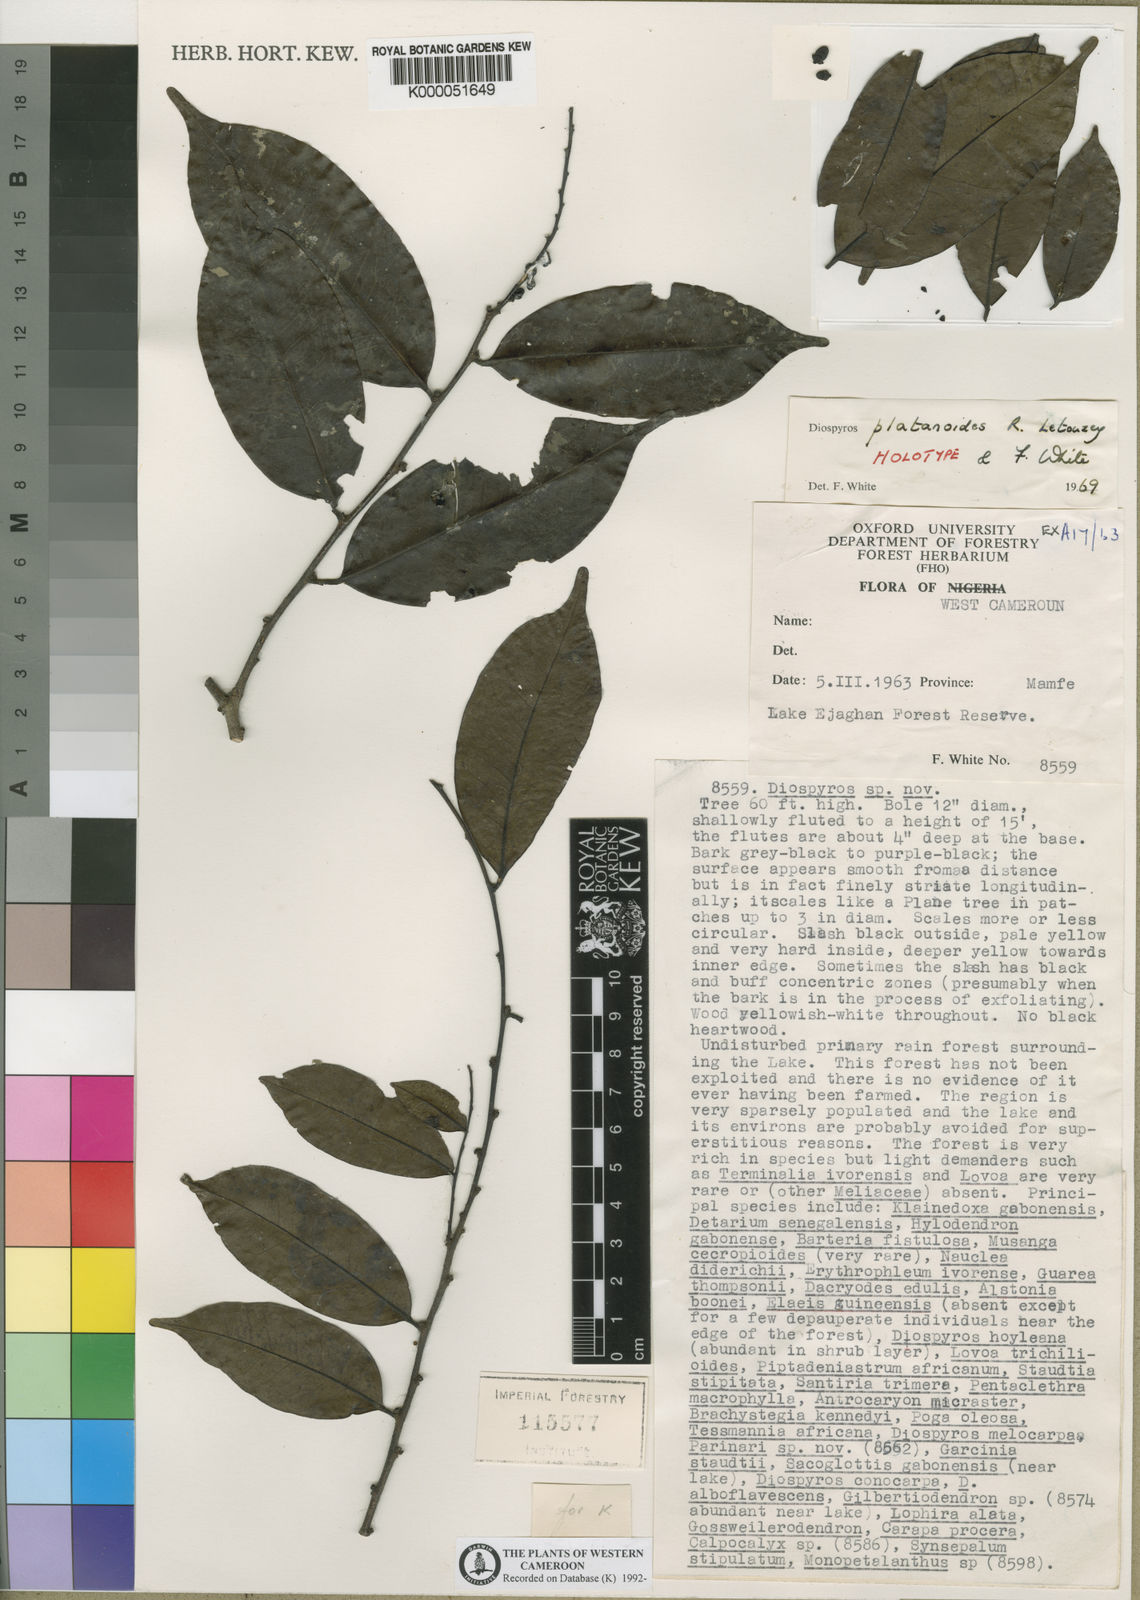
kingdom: Plantae
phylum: Tracheophyta
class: Magnoliopsida
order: Ericales
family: Ebenaceae
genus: Diospyros
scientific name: Diospyros platanoides
